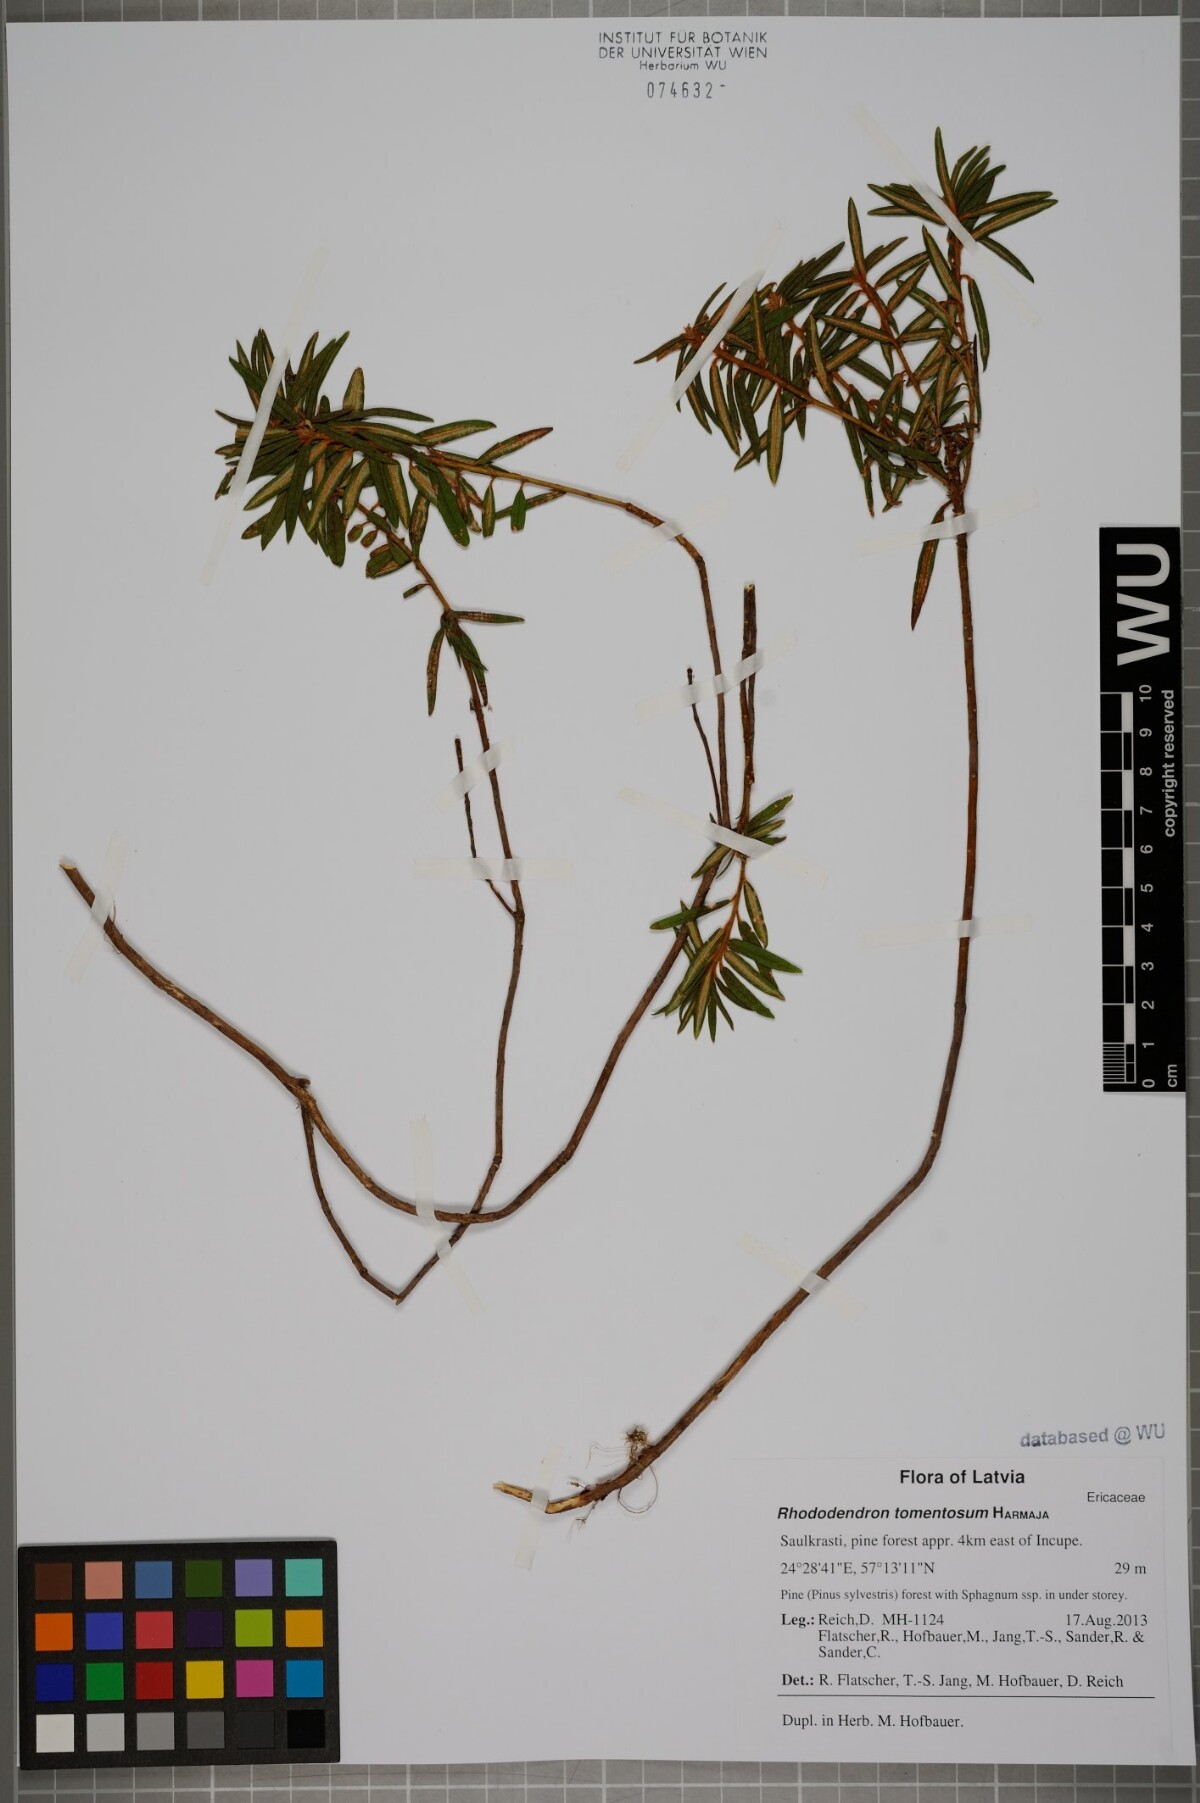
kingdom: Plantae
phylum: Tracheophyta
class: Magnoliopsida
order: Ericales
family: Ericaceae
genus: Rhododendron
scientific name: Rhododendron tomentosum
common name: Marsh labrador tea
